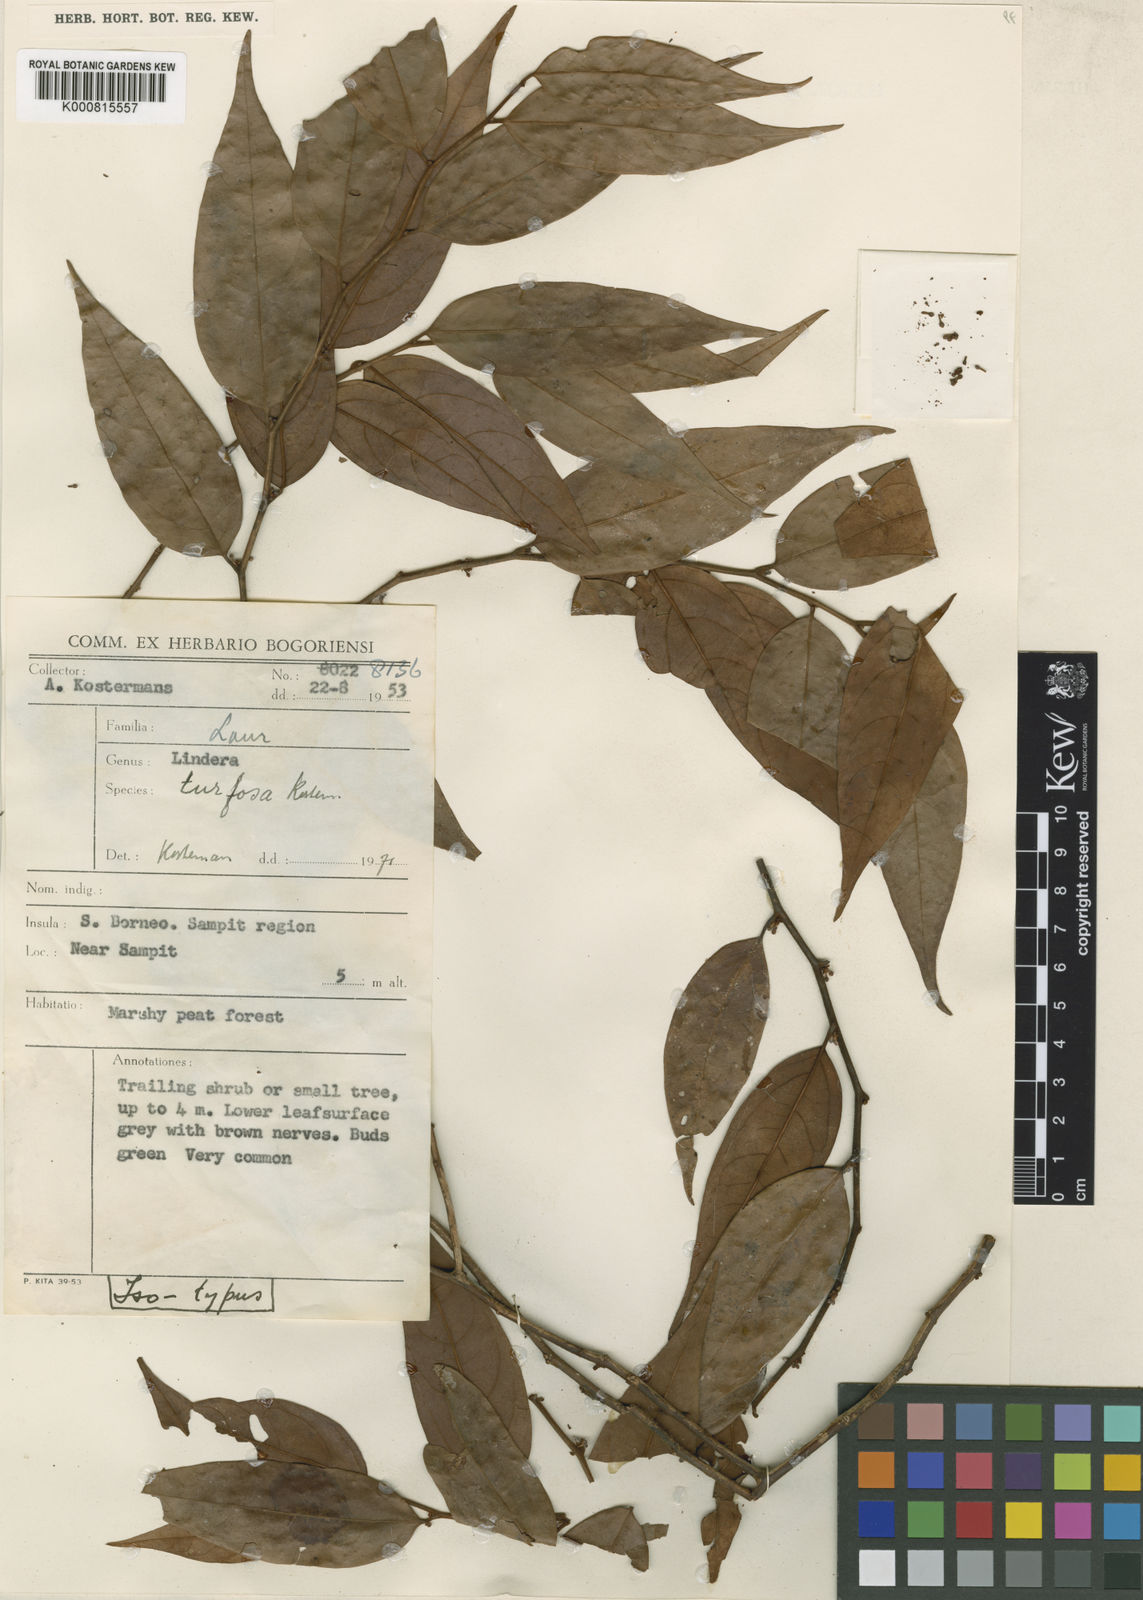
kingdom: Plantae
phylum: Tracheophyta
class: Magnoliopsida
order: Laurales
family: Lauraceae
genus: Lindera
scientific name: Lindera turfosa
